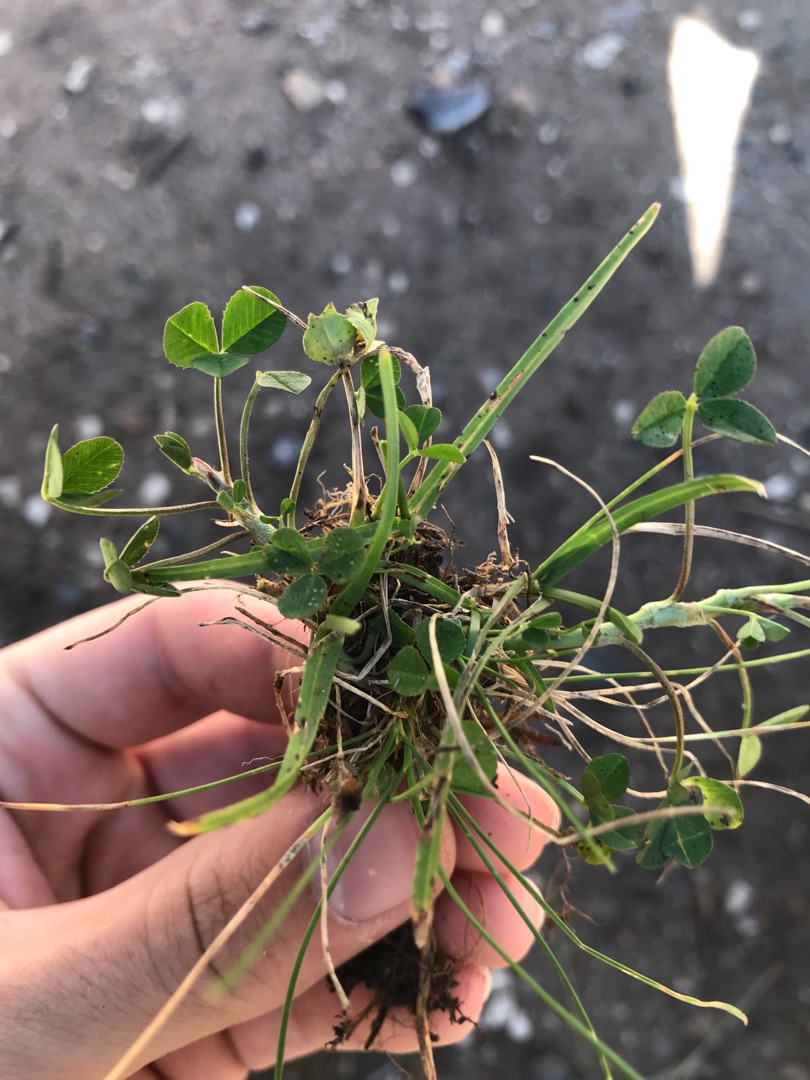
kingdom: Plantae
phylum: Tracheophyta
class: Magnoliopsida
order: Fabales
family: Fabaceae
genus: Trifolium
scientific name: Trifolium repens
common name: Hvid-kløver
